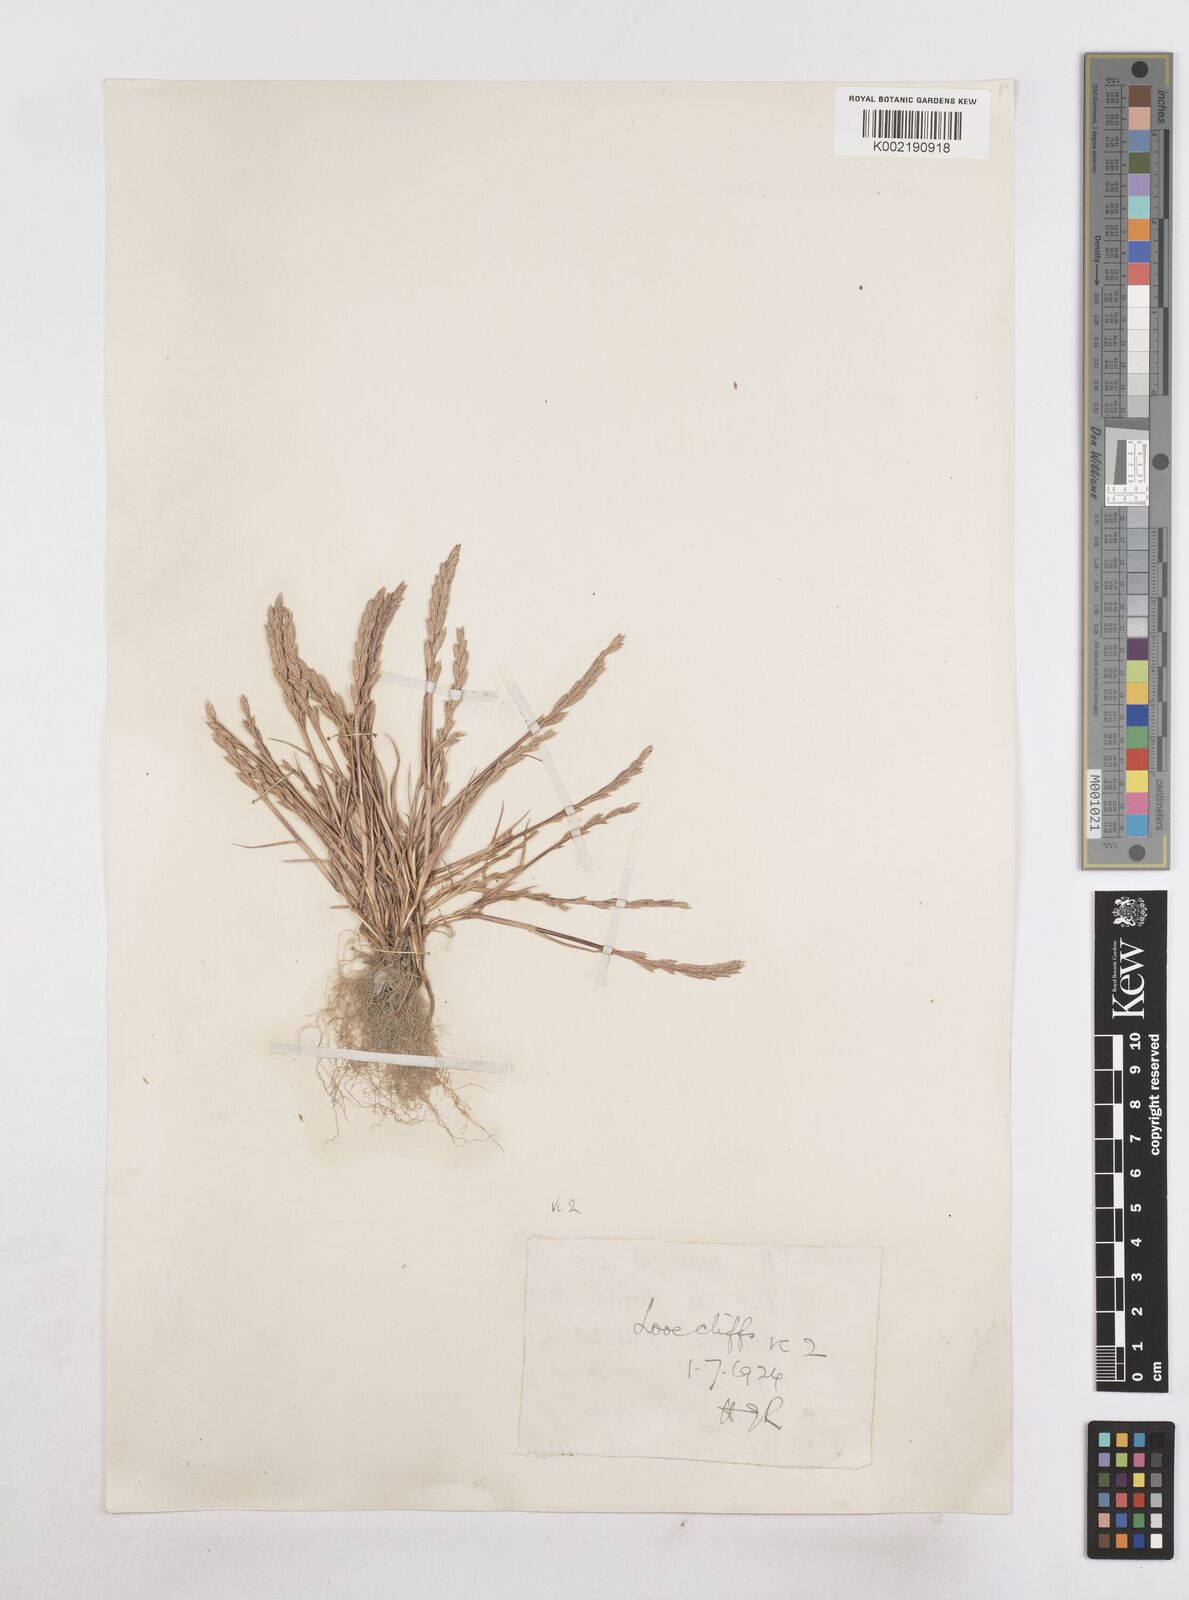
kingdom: Plantae
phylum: Tracheophyta
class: Liliopsida
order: Poales
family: Poaceae
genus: Catapodium
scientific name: Catapodium marinum
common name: Sea fern-grass
